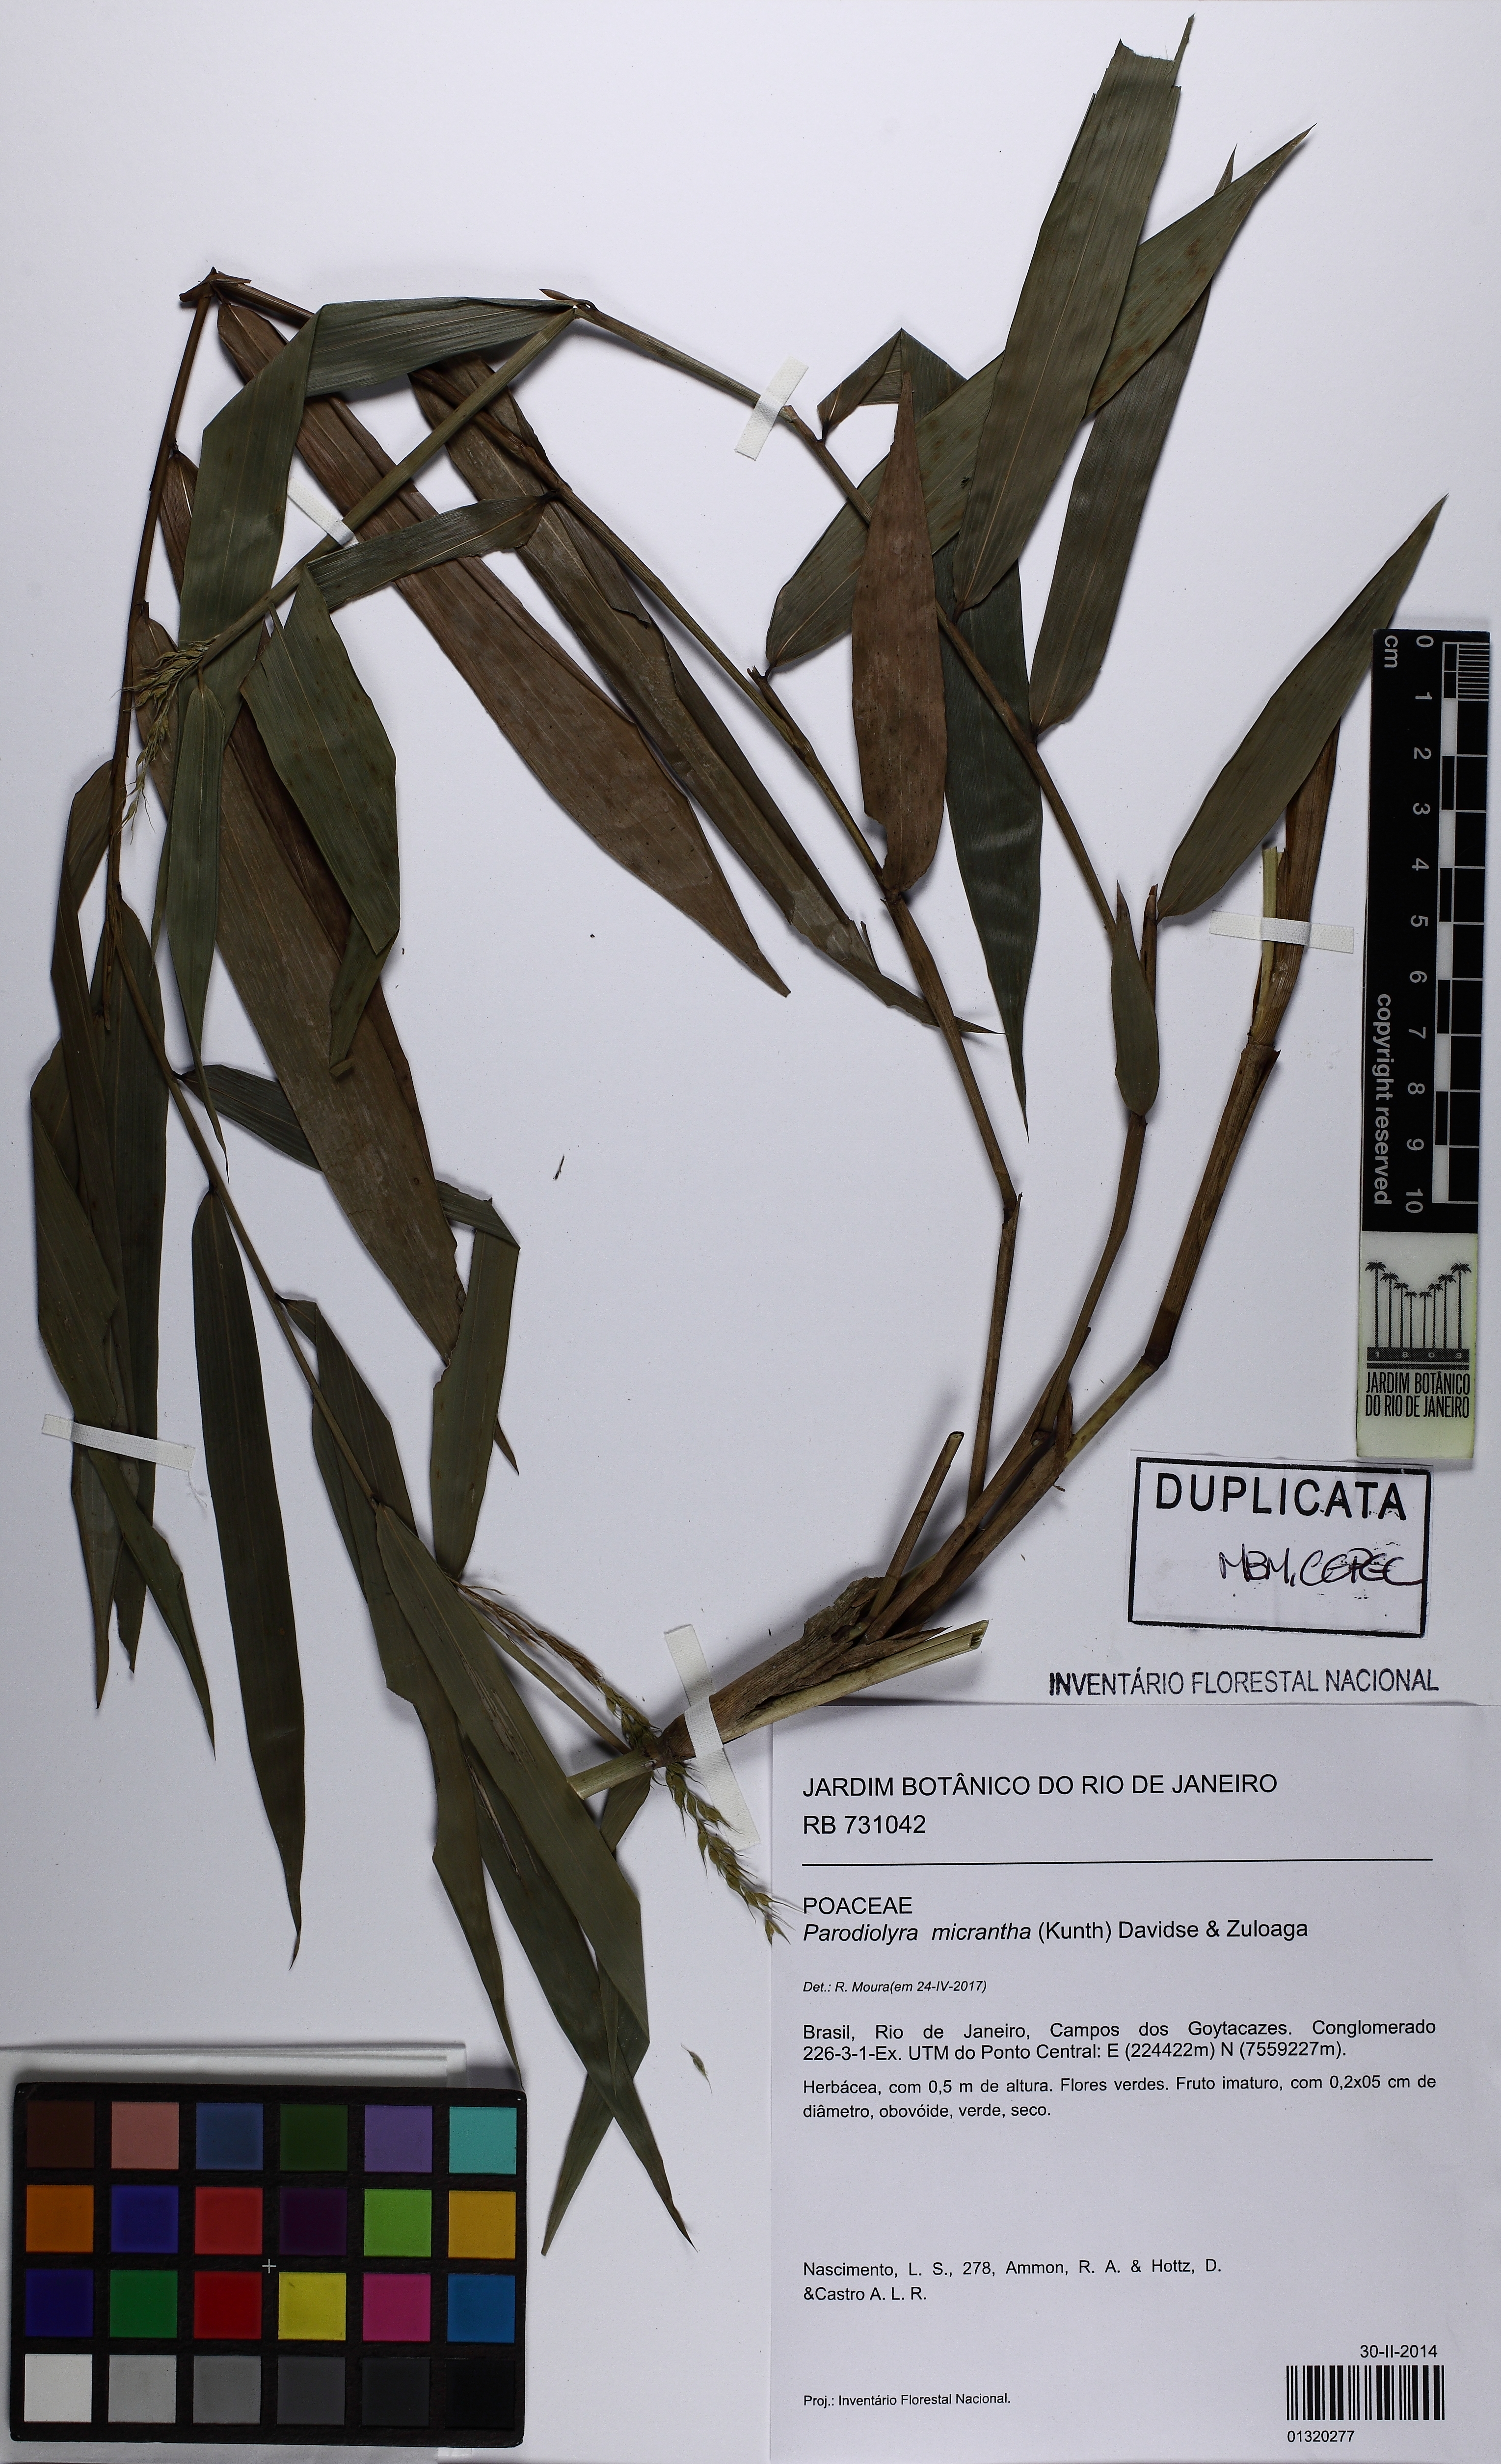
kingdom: Plantae
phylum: Tracheophyta
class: Liliopsida
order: Poales
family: Poaceae
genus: Taquara
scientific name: Taquara micrantha
